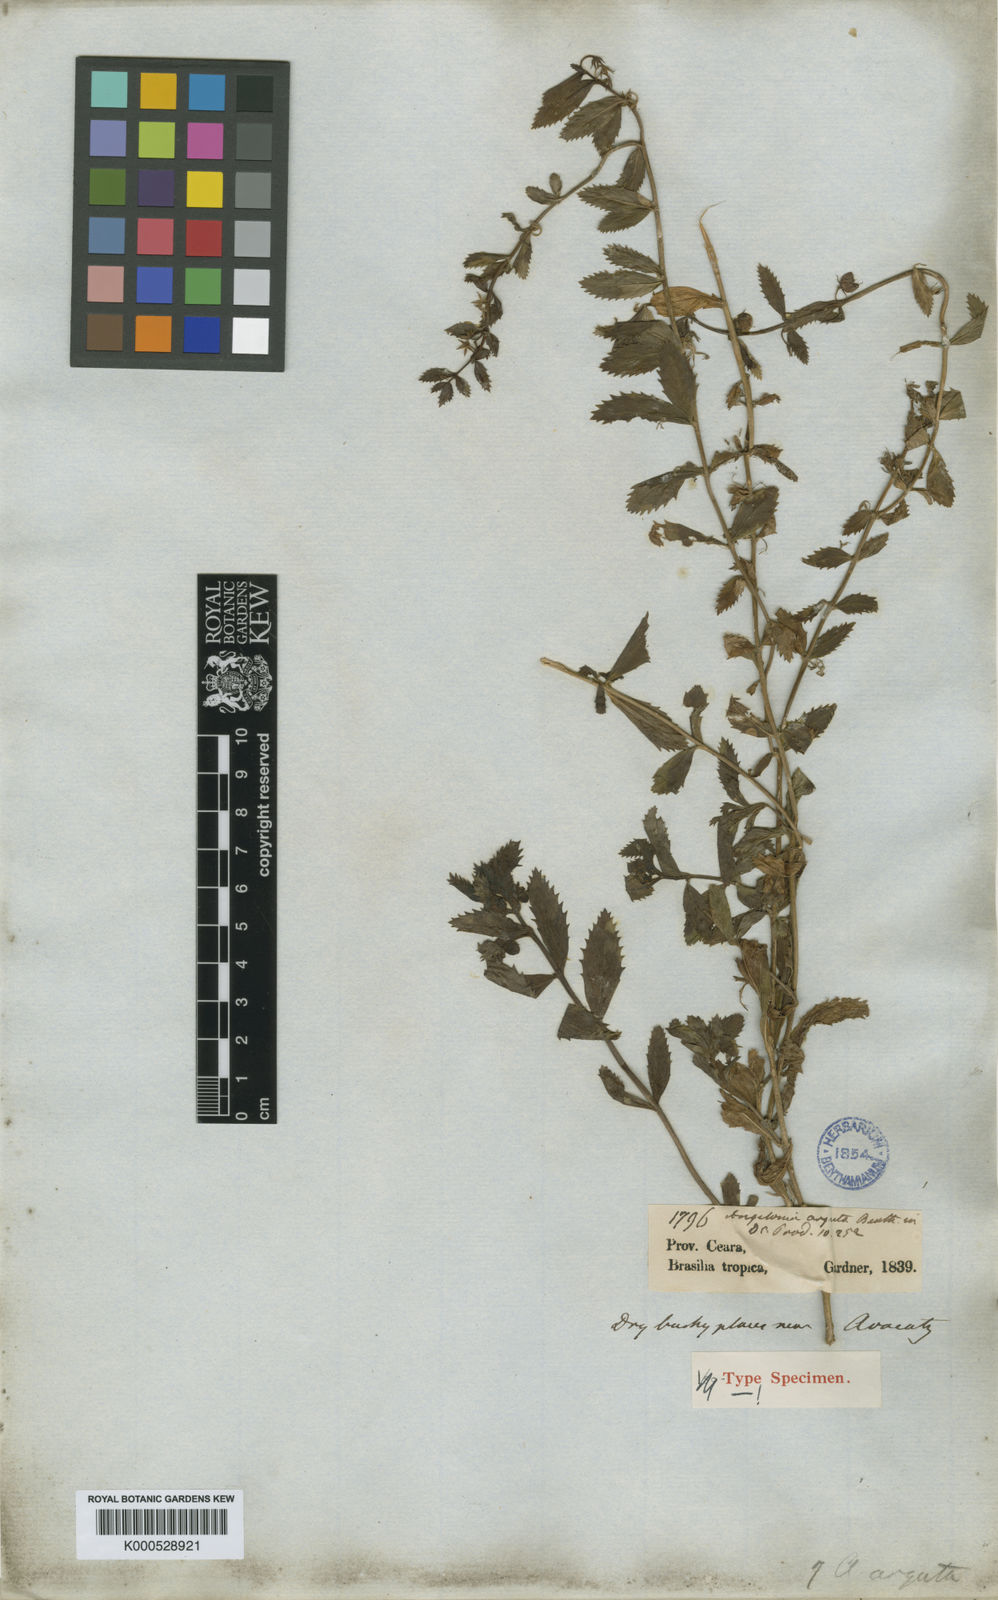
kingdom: Plantae
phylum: Tracheophyta
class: Magnoliopsida
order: Lamiales
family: Plantaginaceae
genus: Angelonia
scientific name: Angelonia arguta
